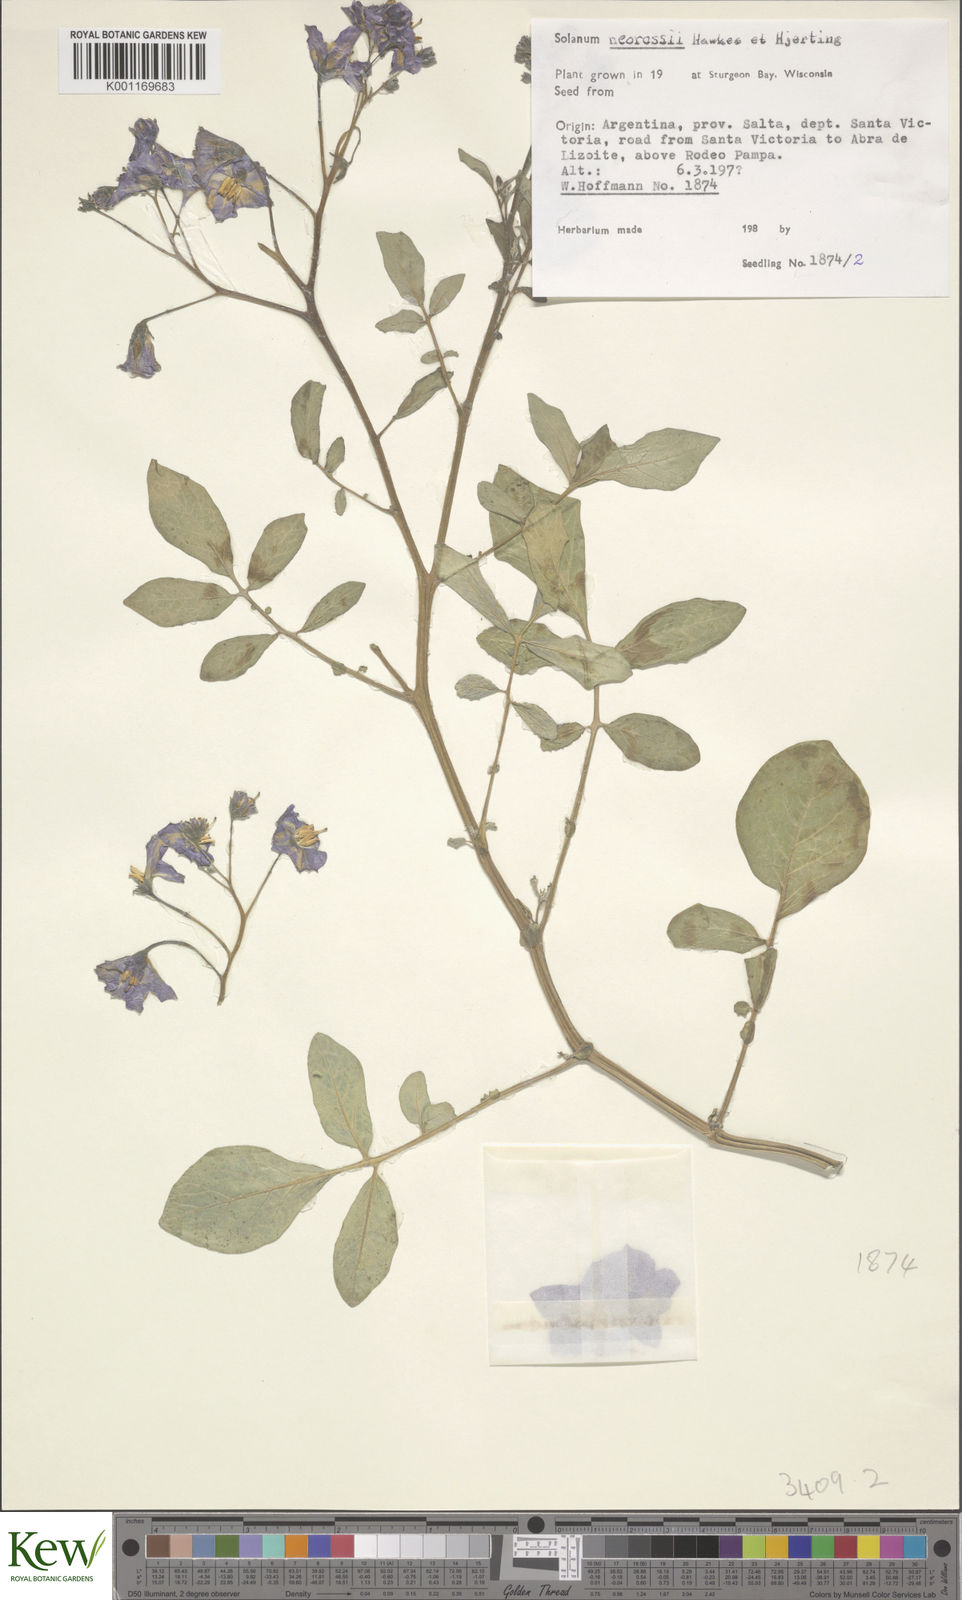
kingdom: Plantae
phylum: Tracheophyta
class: Magnoliopsida
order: Solanales
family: Solanaceae
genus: Solanum
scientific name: Solanum neorossii
